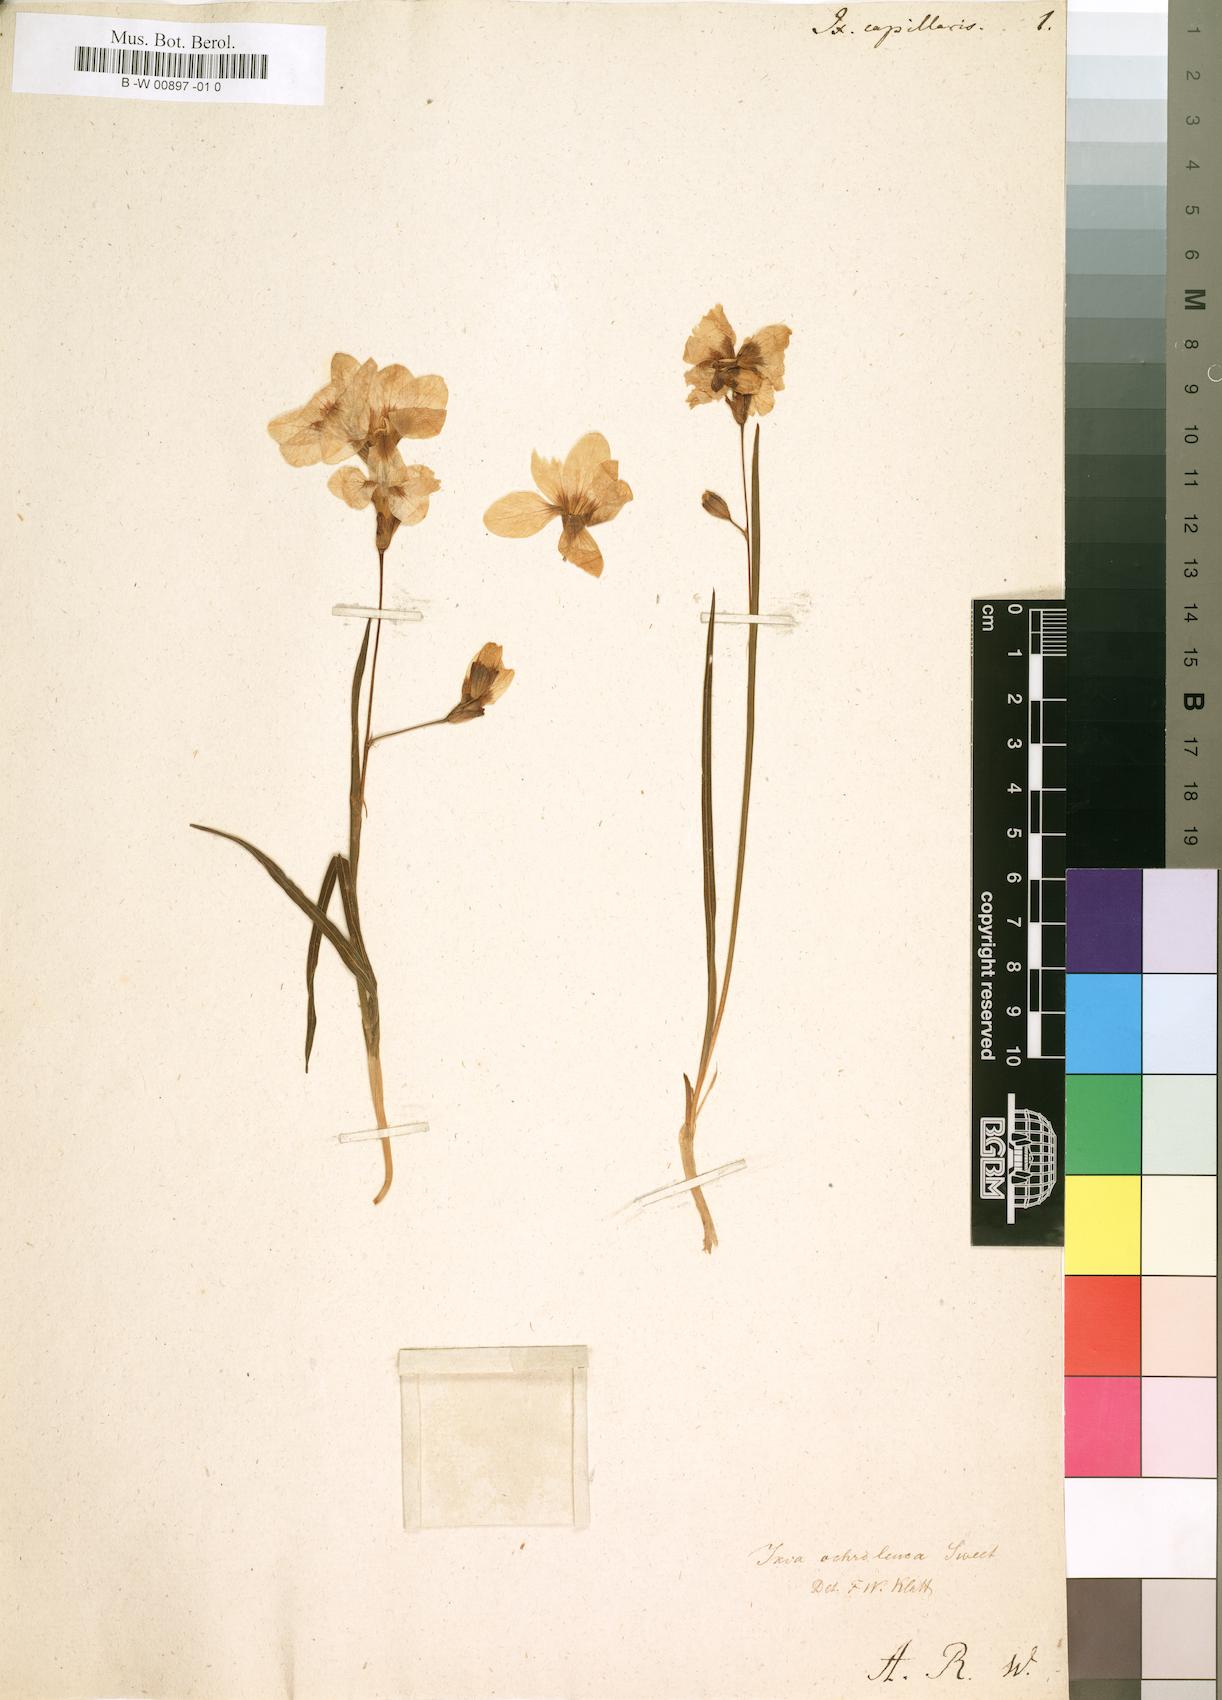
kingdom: Plantae
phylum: Tracheophyta
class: Liliopsida
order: Asparagales
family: Iridaceae
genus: Ixia
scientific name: Ixia capillaris
